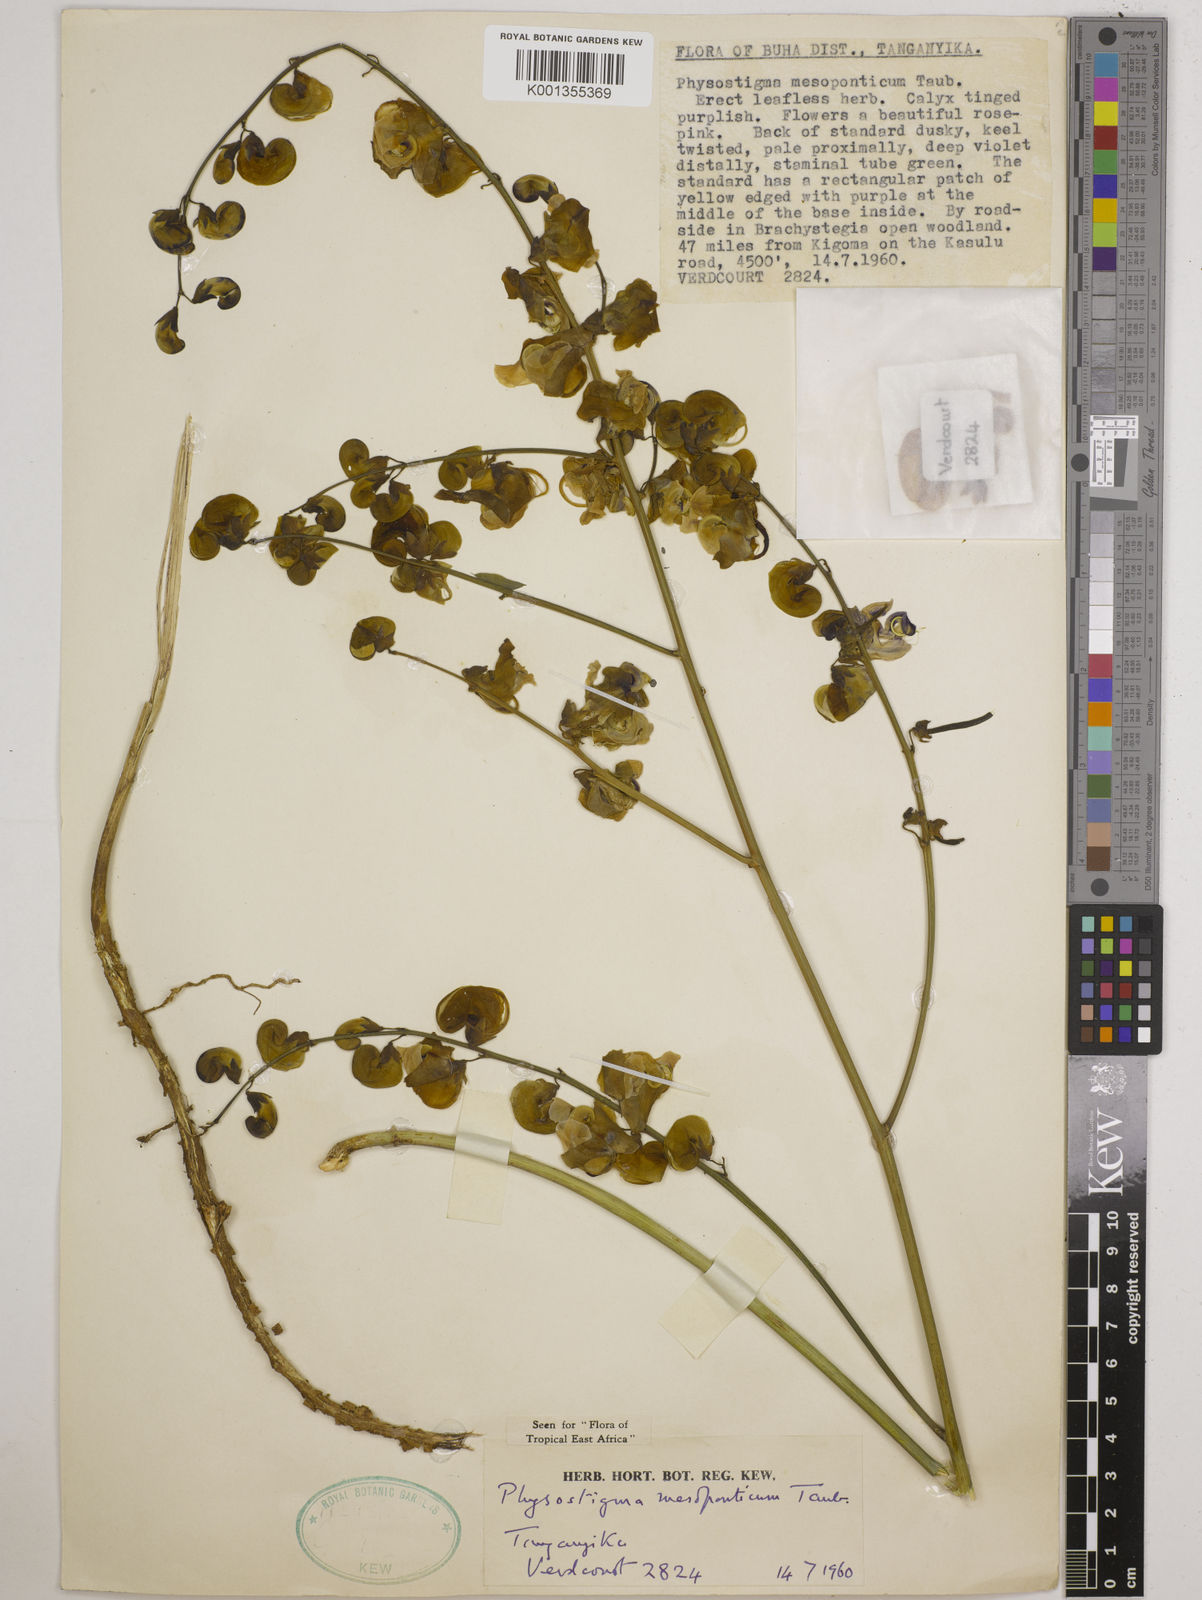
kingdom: Plantae
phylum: Tracheophyta
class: Magnoliopsida
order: Fabales
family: Fabaceae
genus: Physostigma
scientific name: Physostigma mesoponticum
